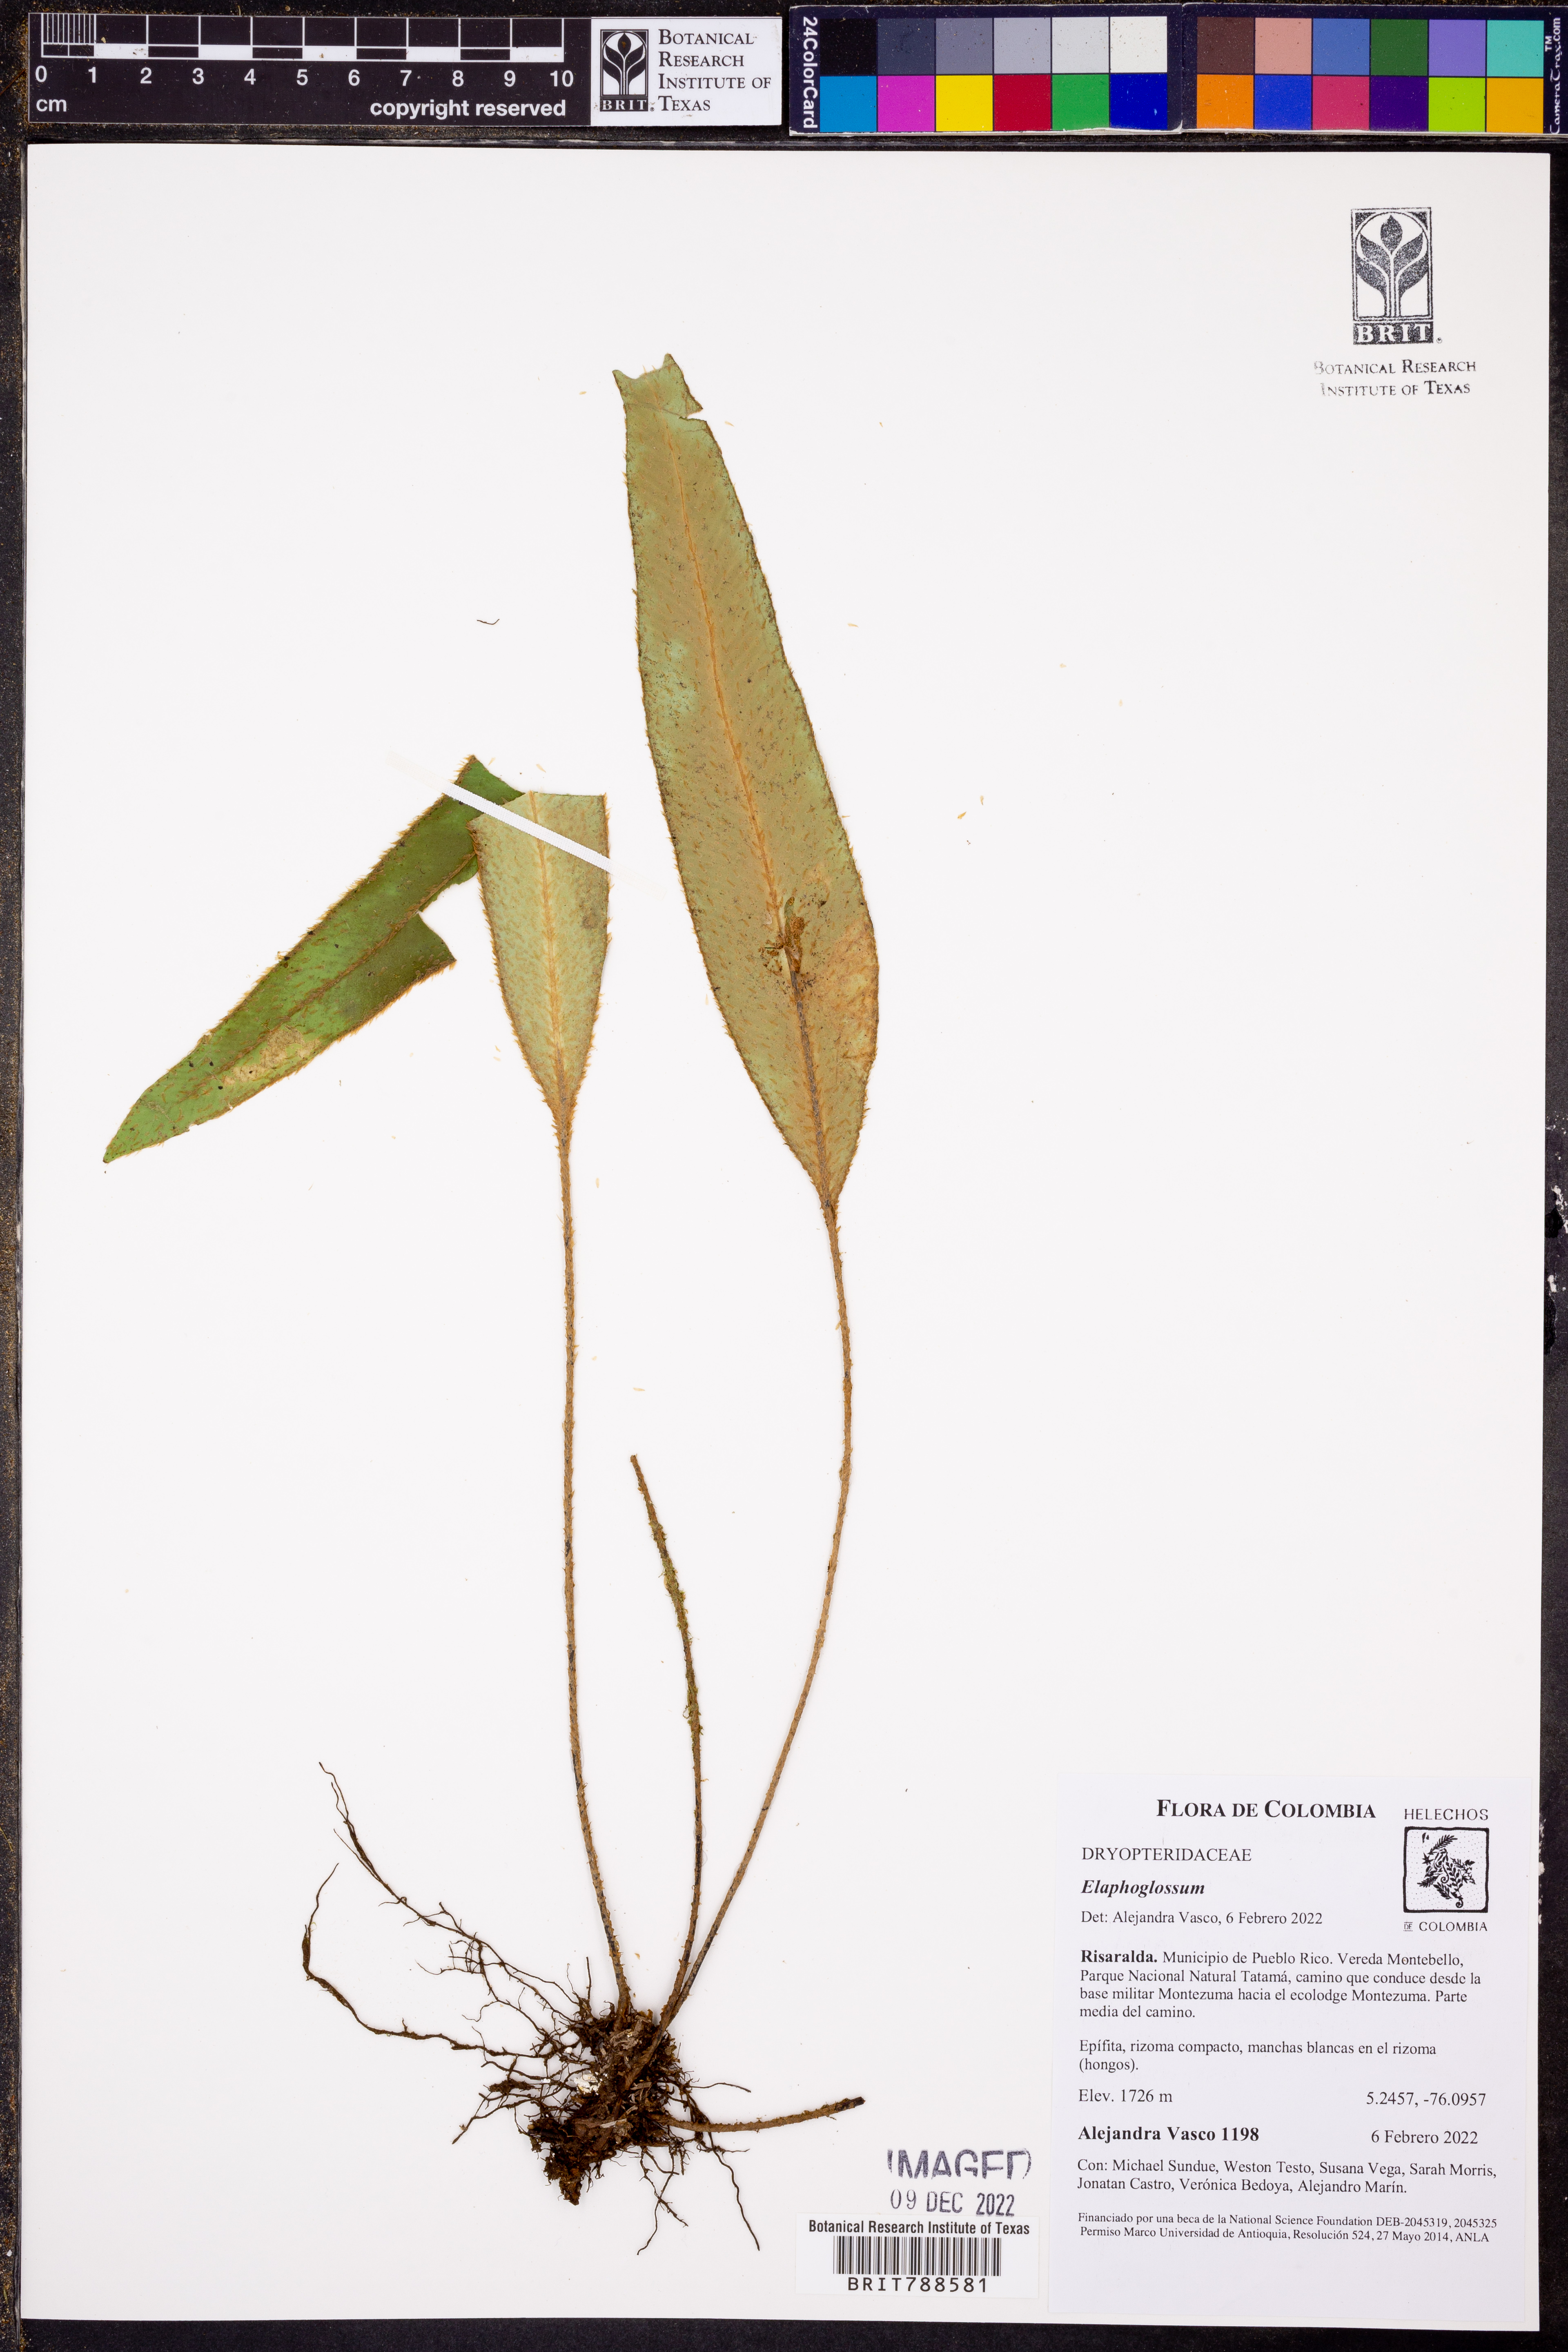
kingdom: Plantae
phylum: Tracheophyta
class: Polypodiopsida
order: Polypodiales
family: Dryopteridaceae
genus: Elaphoglossum
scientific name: Elaphoglossum
